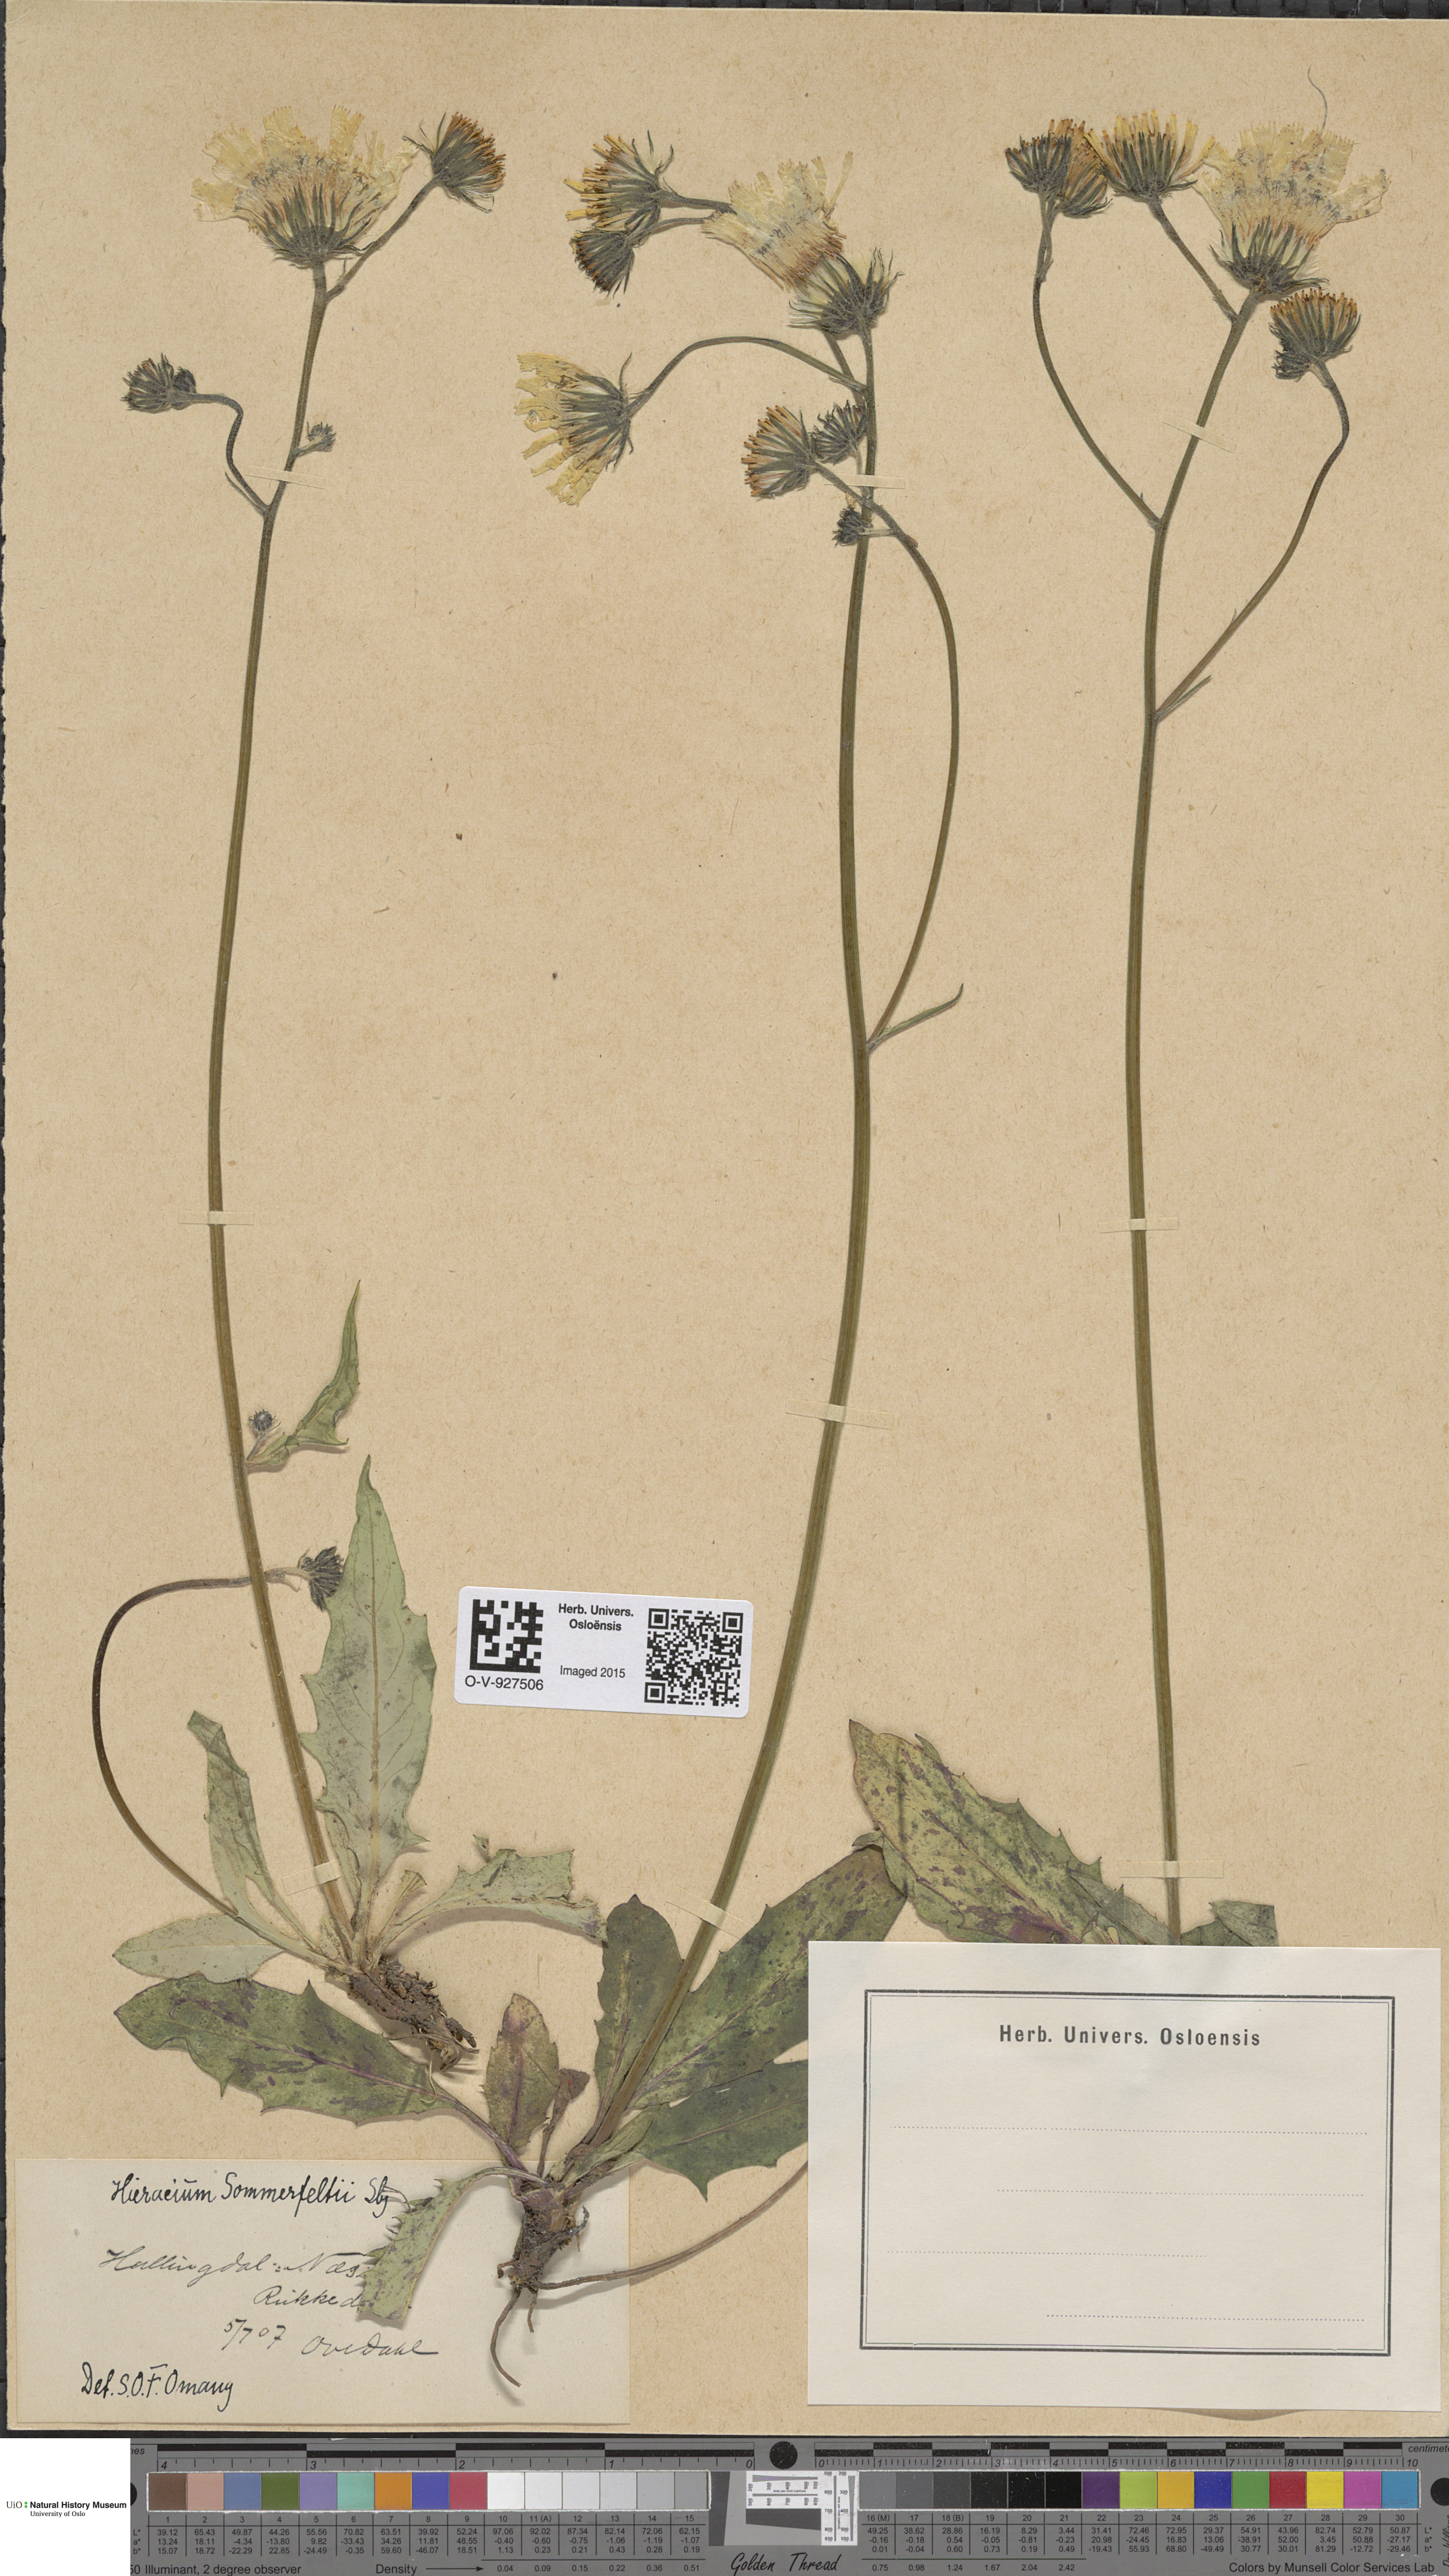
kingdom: Plantae
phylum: Tracheophyta
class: Magnoliopsida
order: Asterales
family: Asteraceae
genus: Hieracium
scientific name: Hieracium sommerfeltii
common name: Sommerfelt's hawkweed
